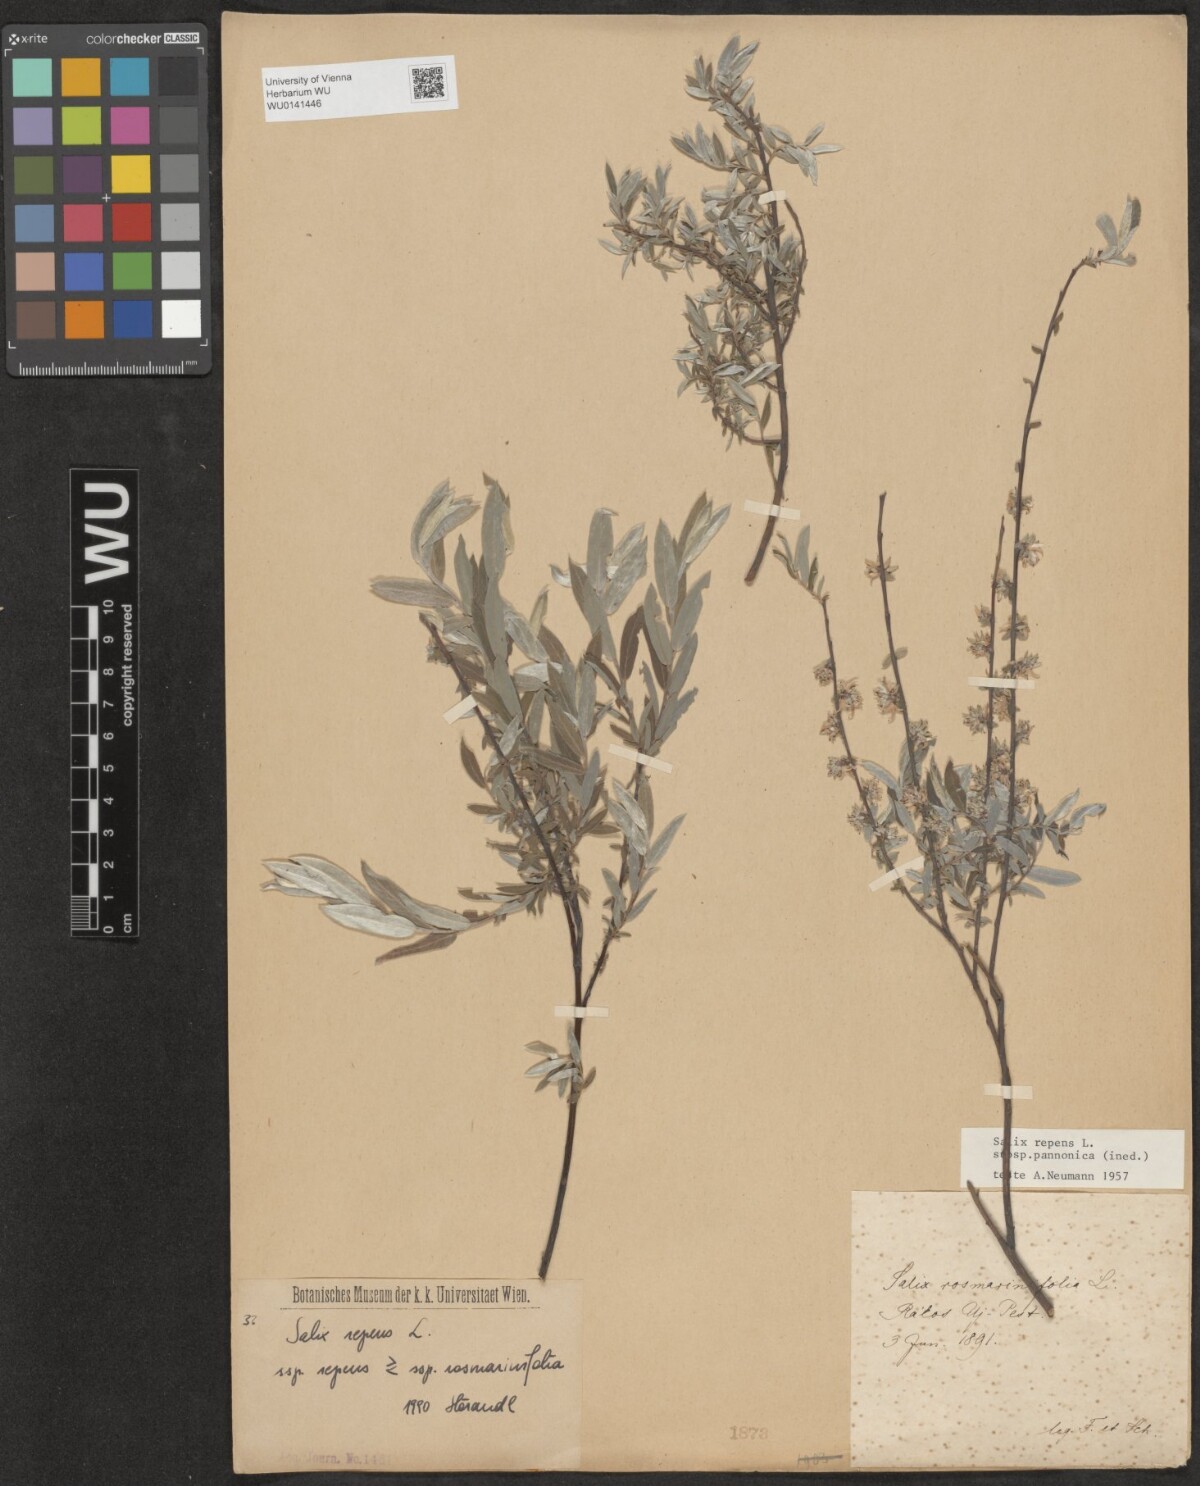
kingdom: Plantae
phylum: Tracheophyta
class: Magnoliopsida
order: Malpighiales
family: Salicaceae
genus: Salix
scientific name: Salix repens
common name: Creeping willow
